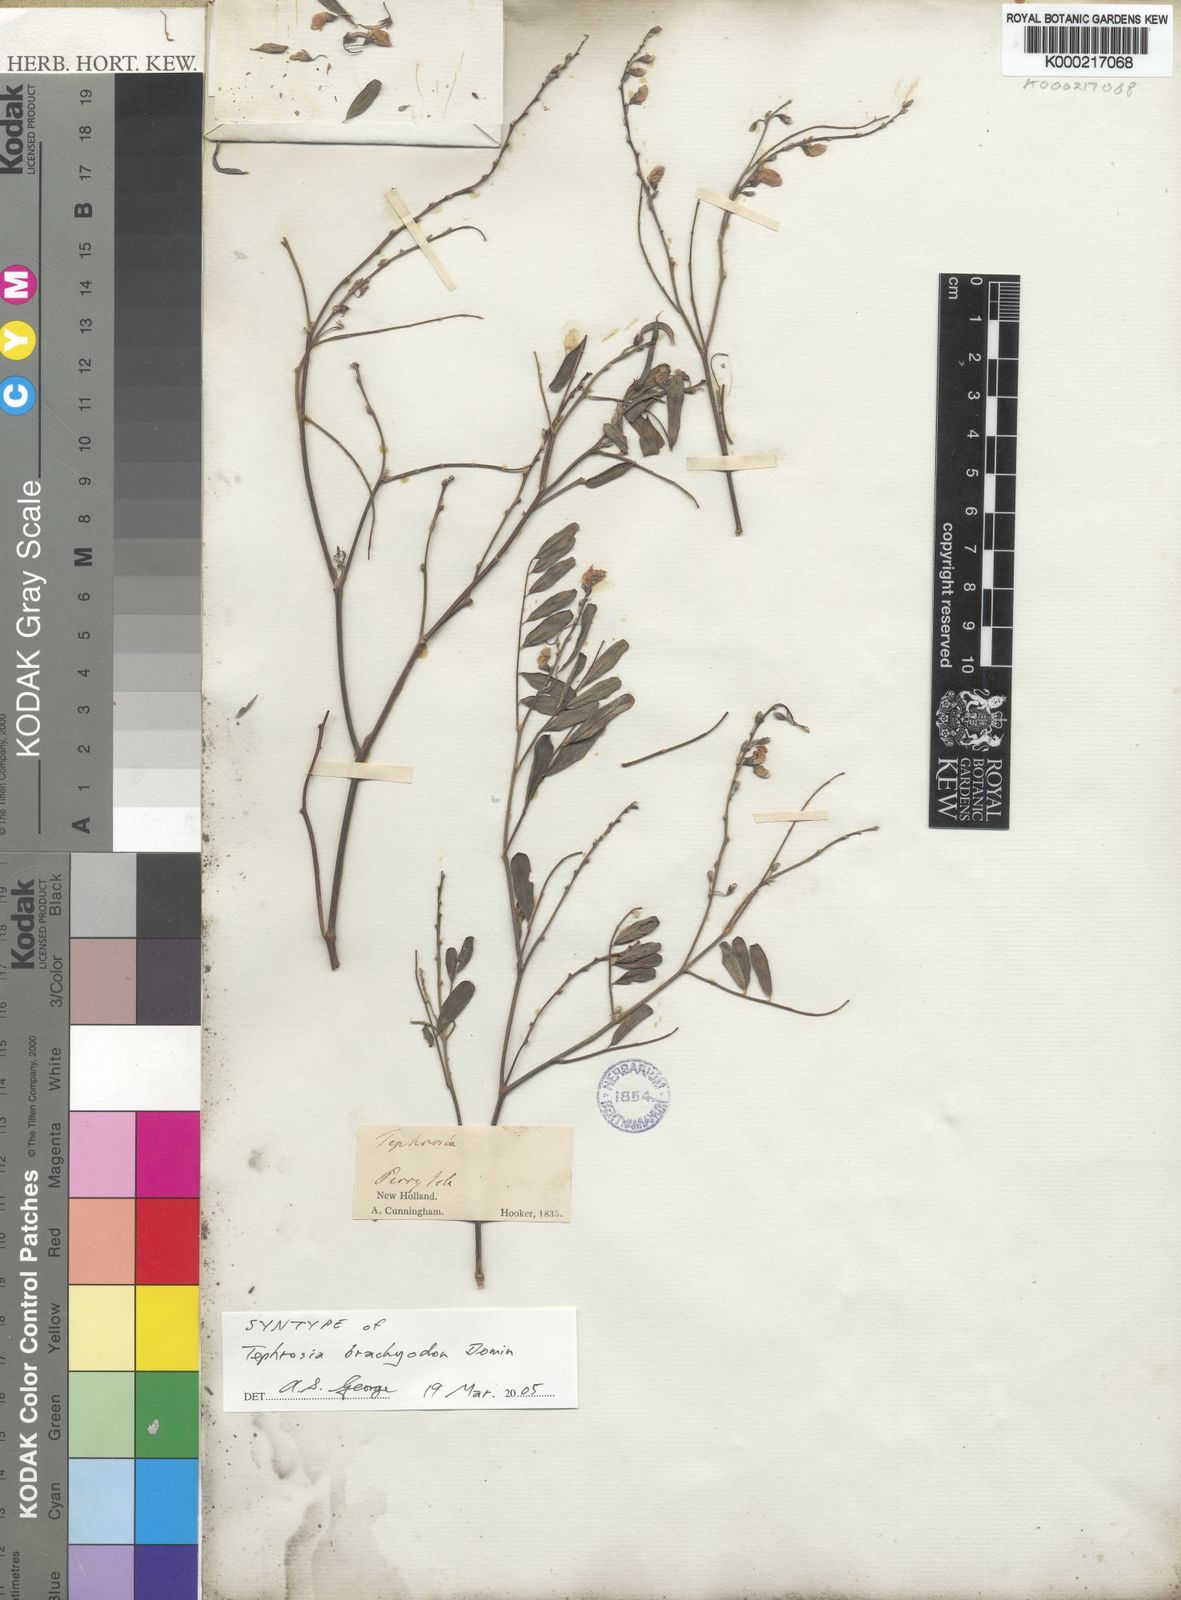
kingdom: Plantae
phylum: Tracheophyta
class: Magnoliopsida
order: Fabales
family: Fabaceae
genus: Tephrosia
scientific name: Tephrosia brachyodon
